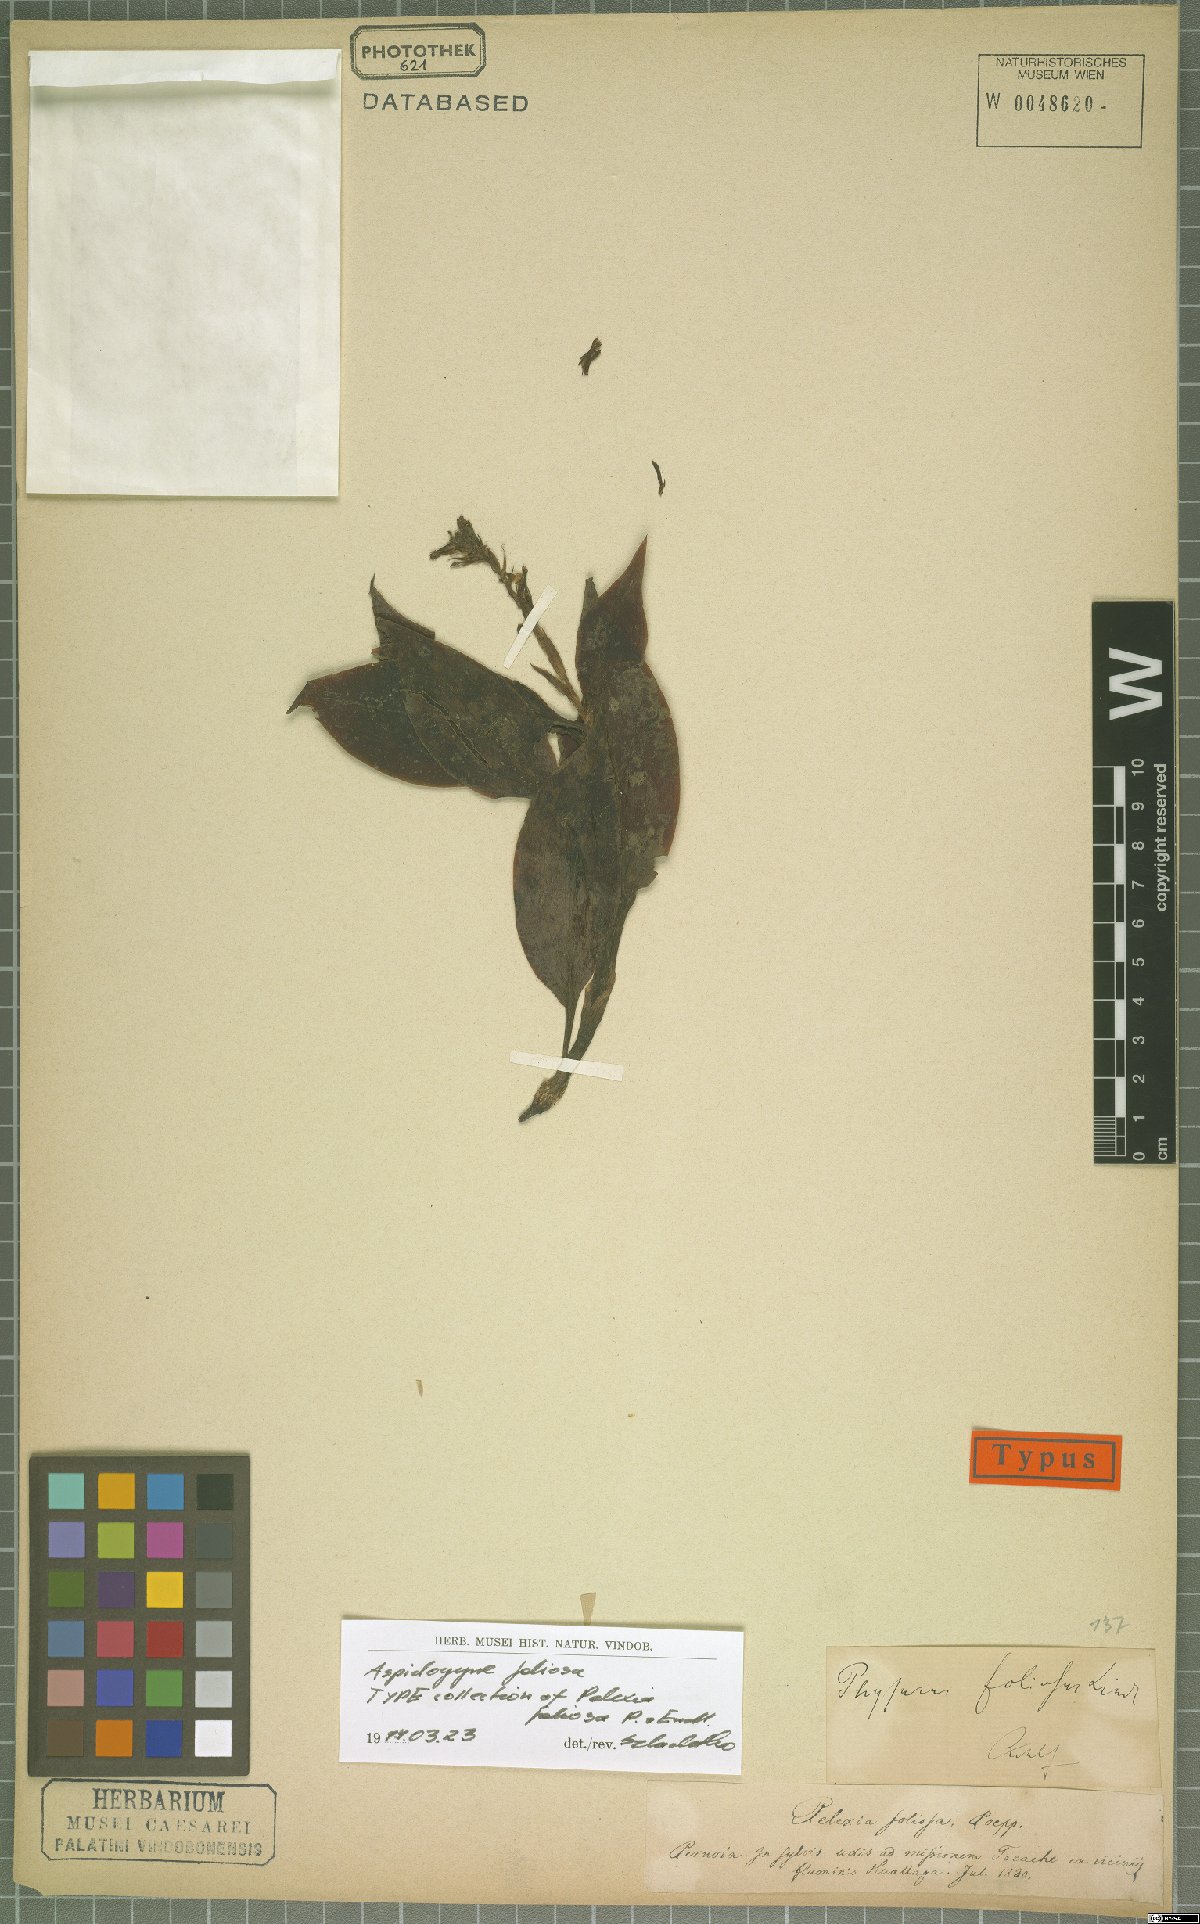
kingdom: Plantae
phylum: Tracheophyta
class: Liliopsida
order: Asparagales
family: Orchidaceae
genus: Aspidogyne
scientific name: Aspidogyne foliosa
